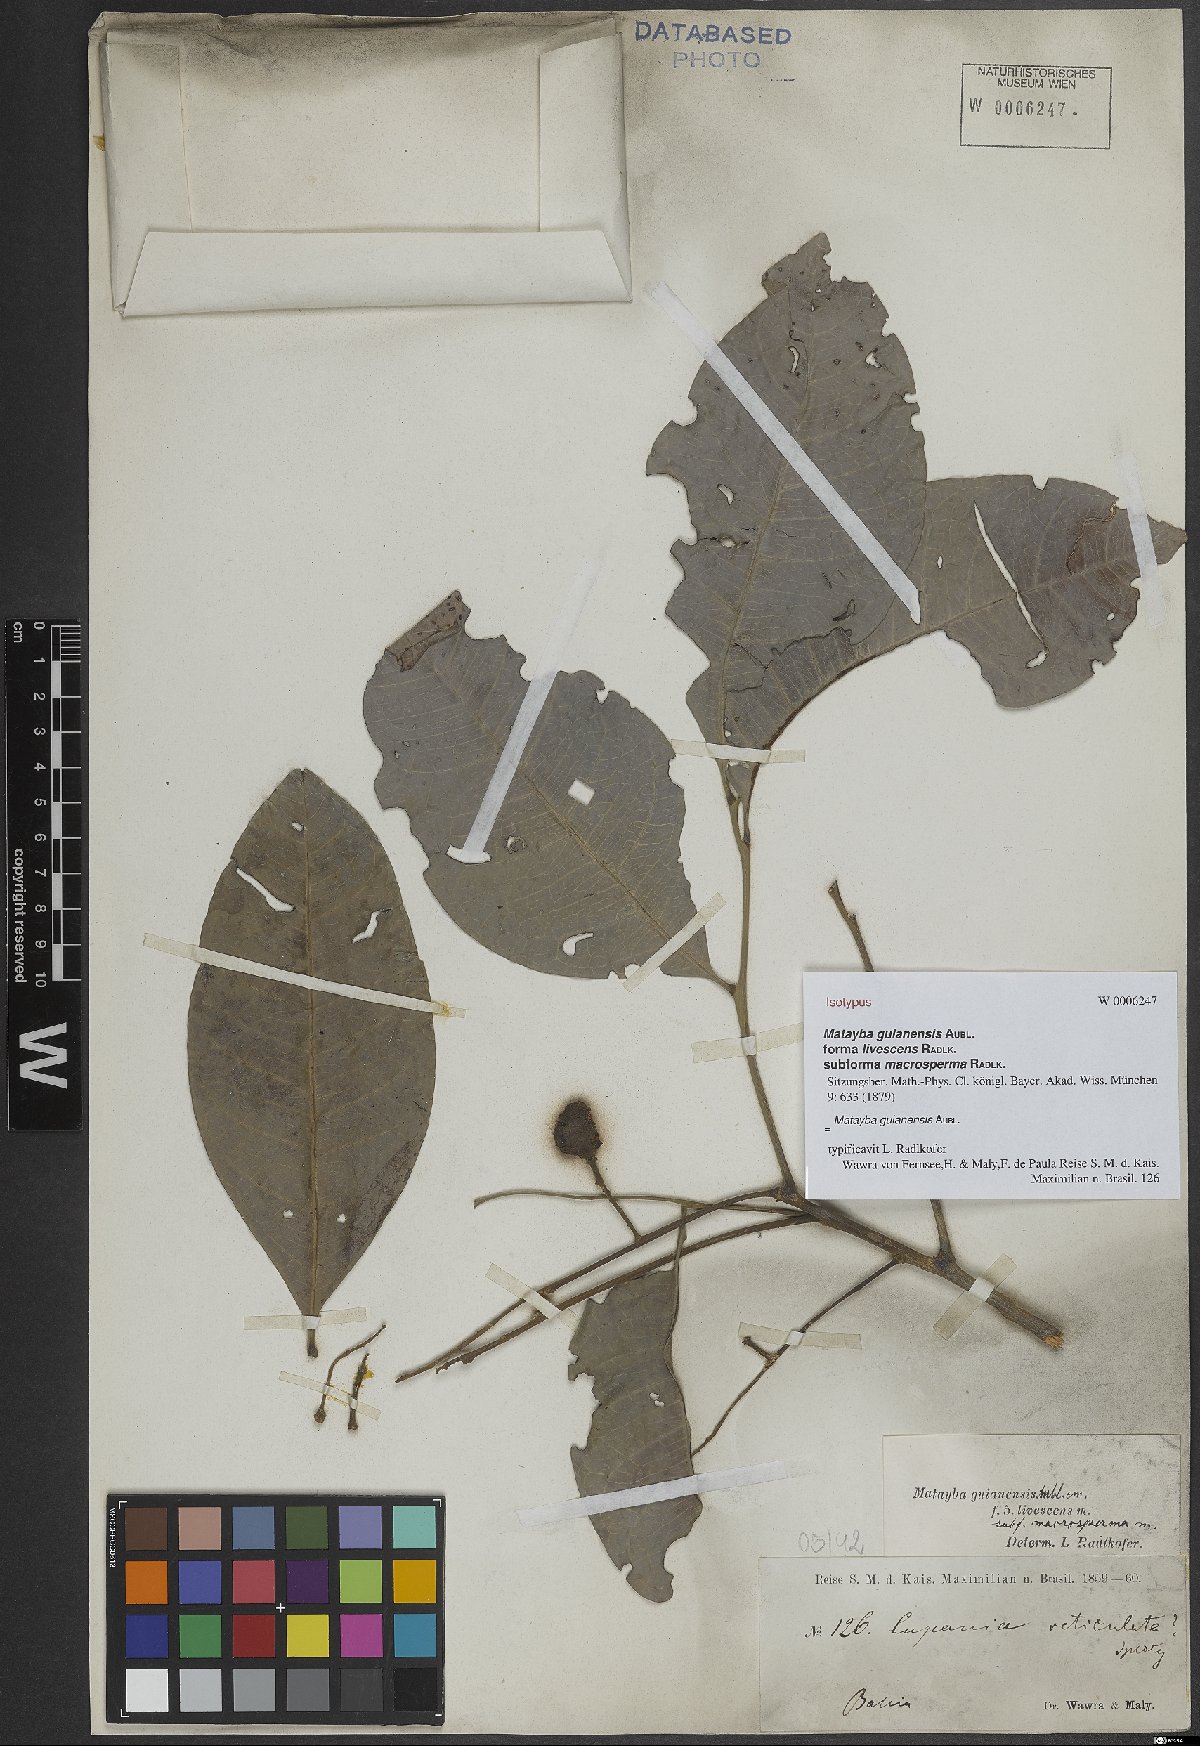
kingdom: Plantae
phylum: Tracheophyta
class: Magnoliopsida
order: Sapindales
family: Sapindaceae
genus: Matayba
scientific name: Matayba guianensis
